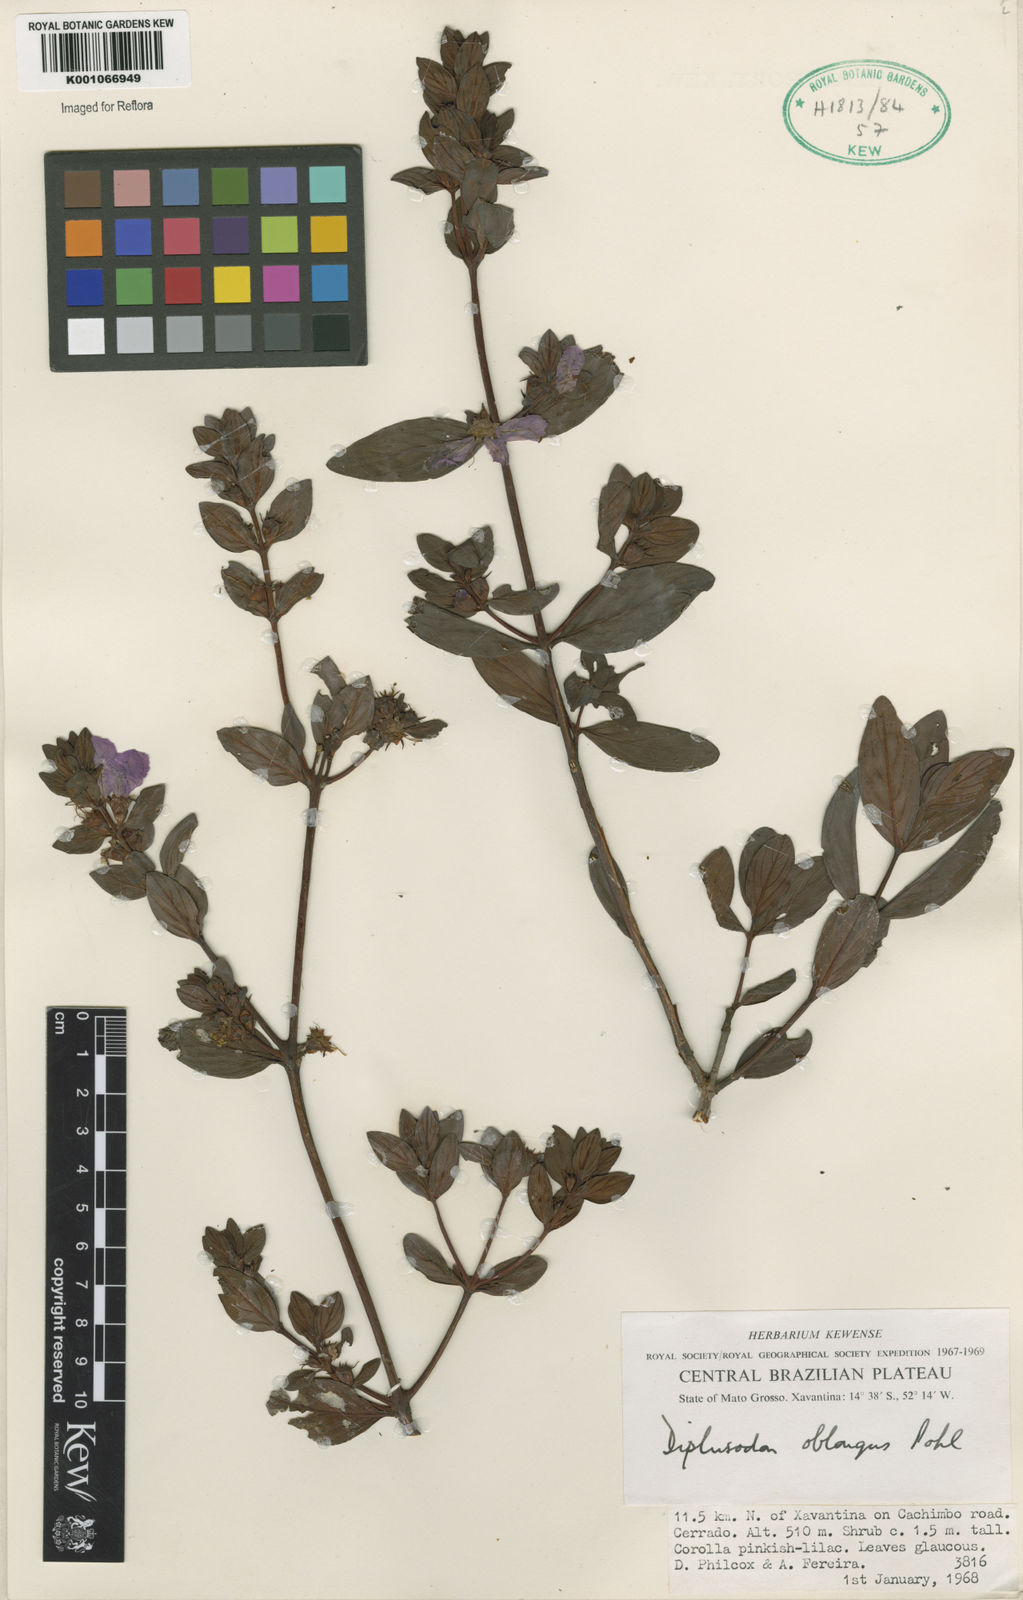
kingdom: Plantae
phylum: Tracheophyta
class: Magnoliopsida
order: Myrtales
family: Lythraceae
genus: Diplusodon
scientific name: Diplusodon oblongus
